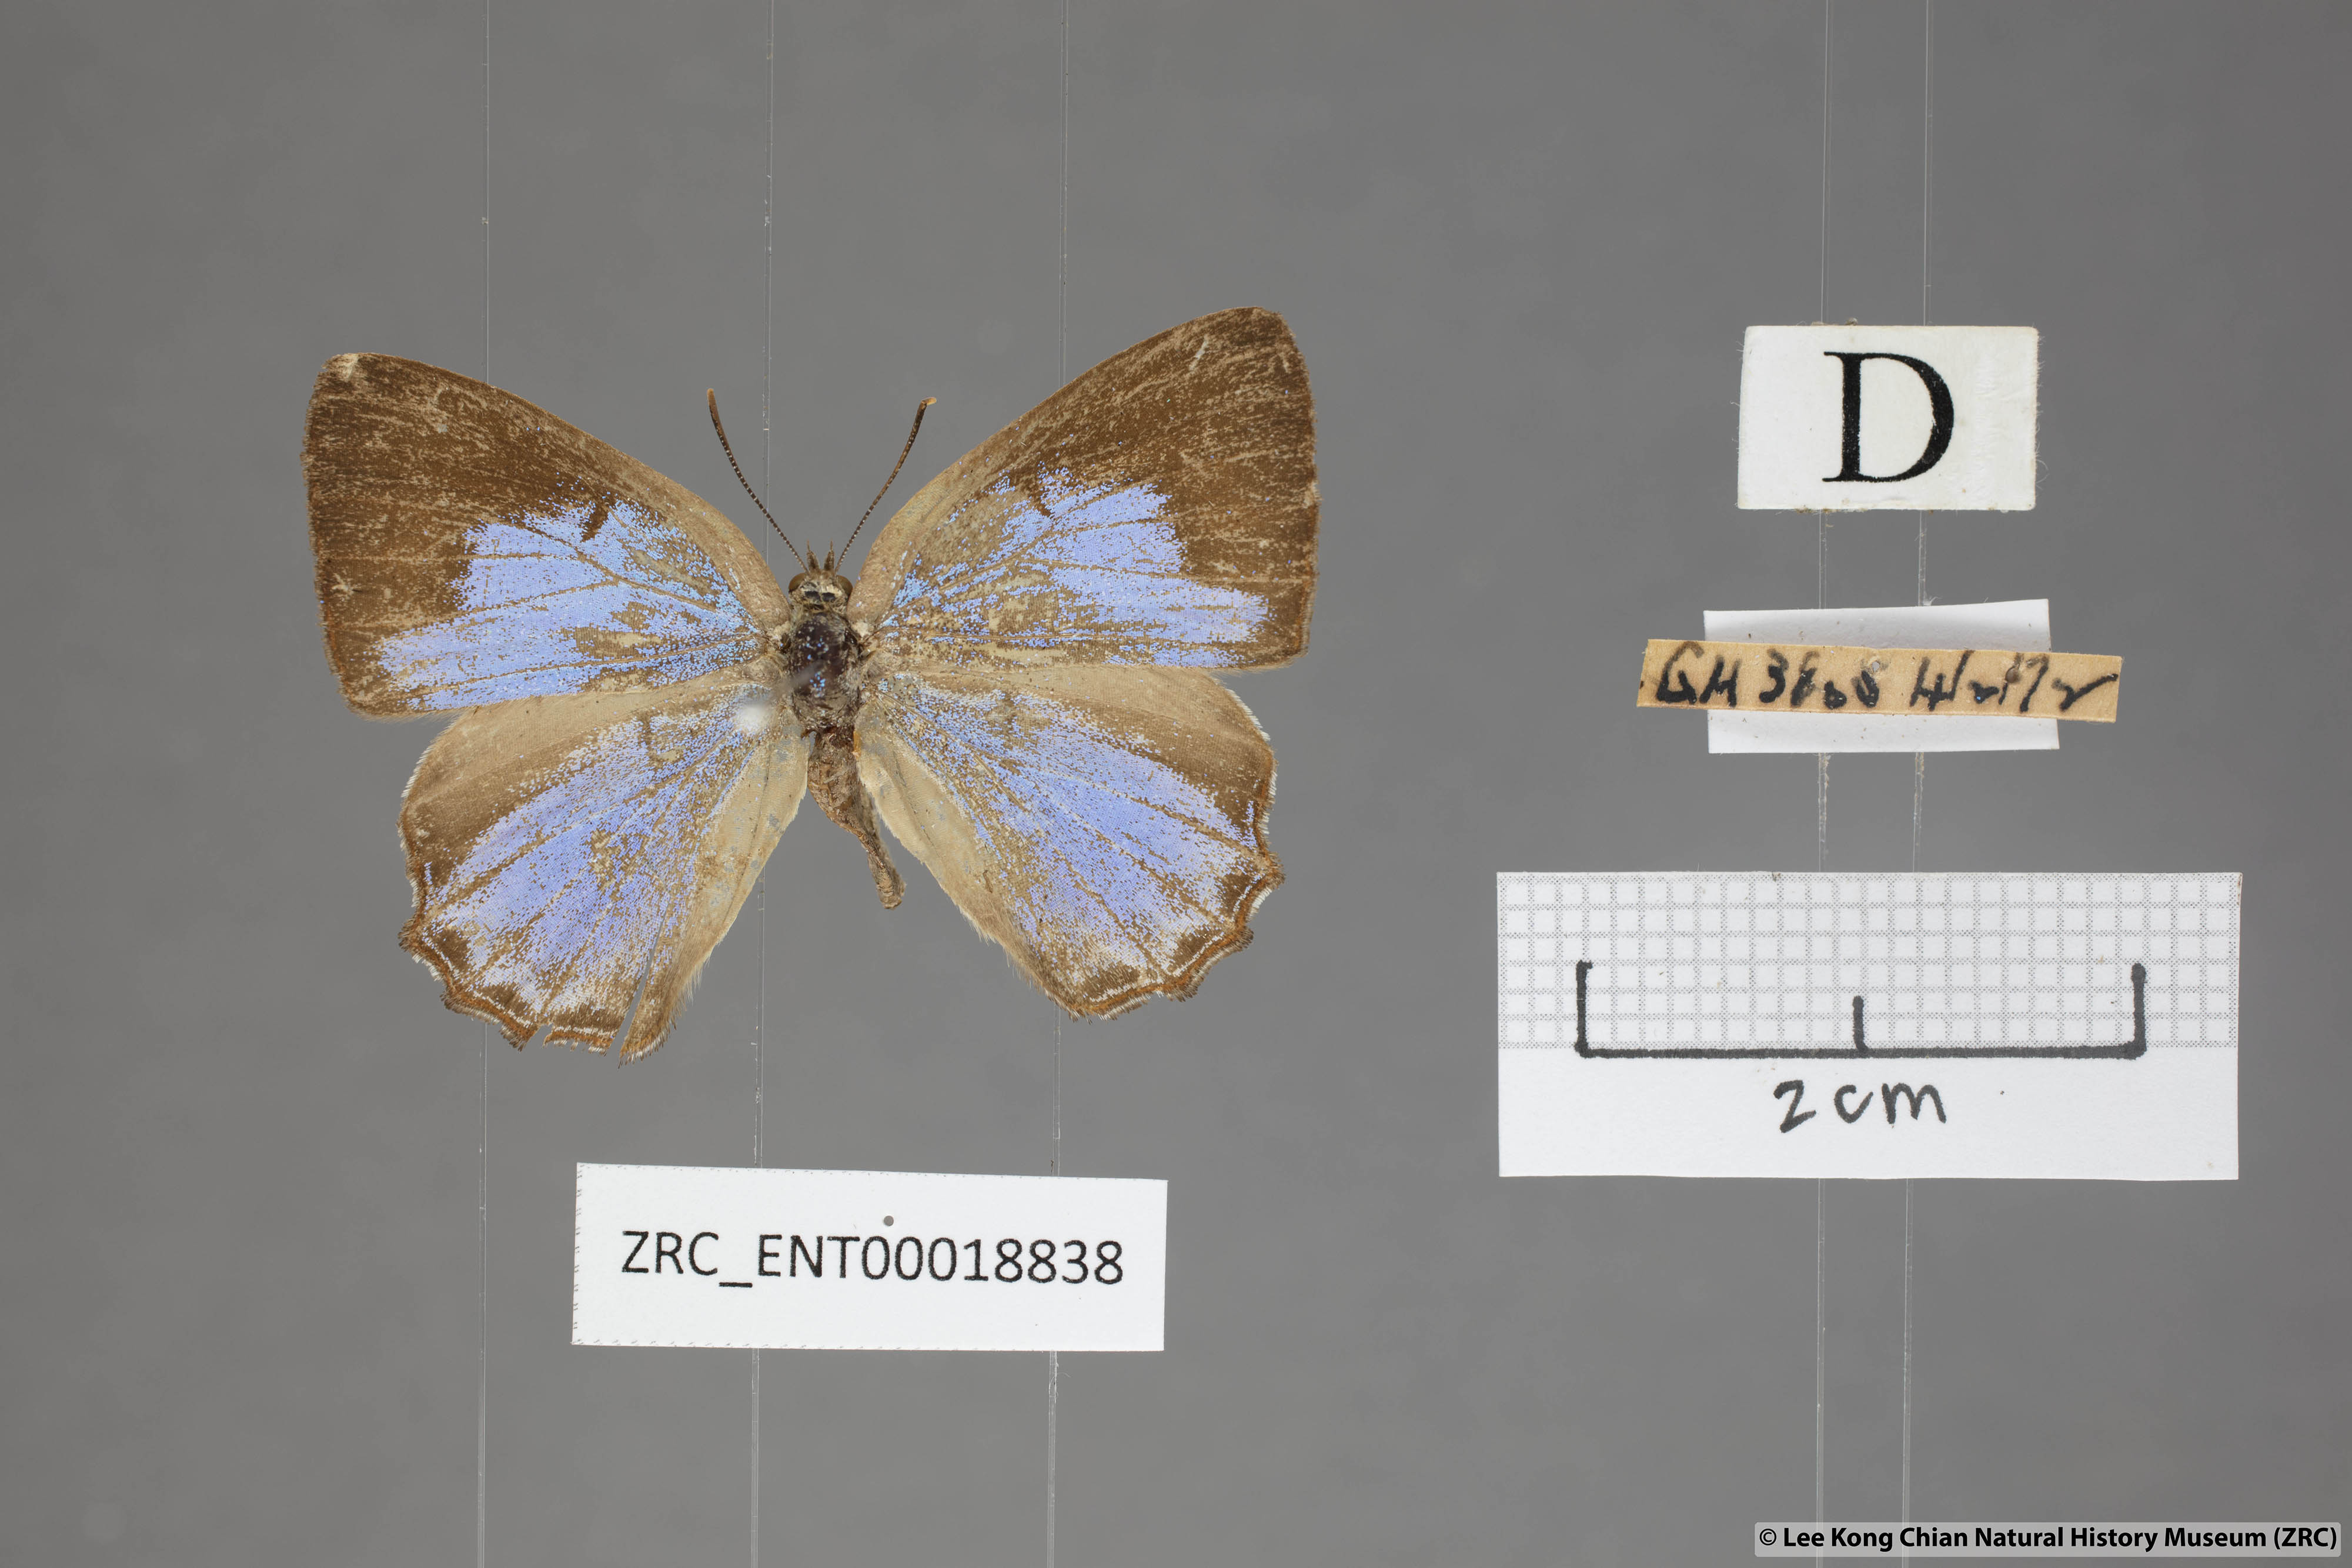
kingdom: Animalia
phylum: Arthropoda
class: Insecta
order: Lepidoptera
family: Lycaenidae
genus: Poritia
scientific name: Poritia promula
